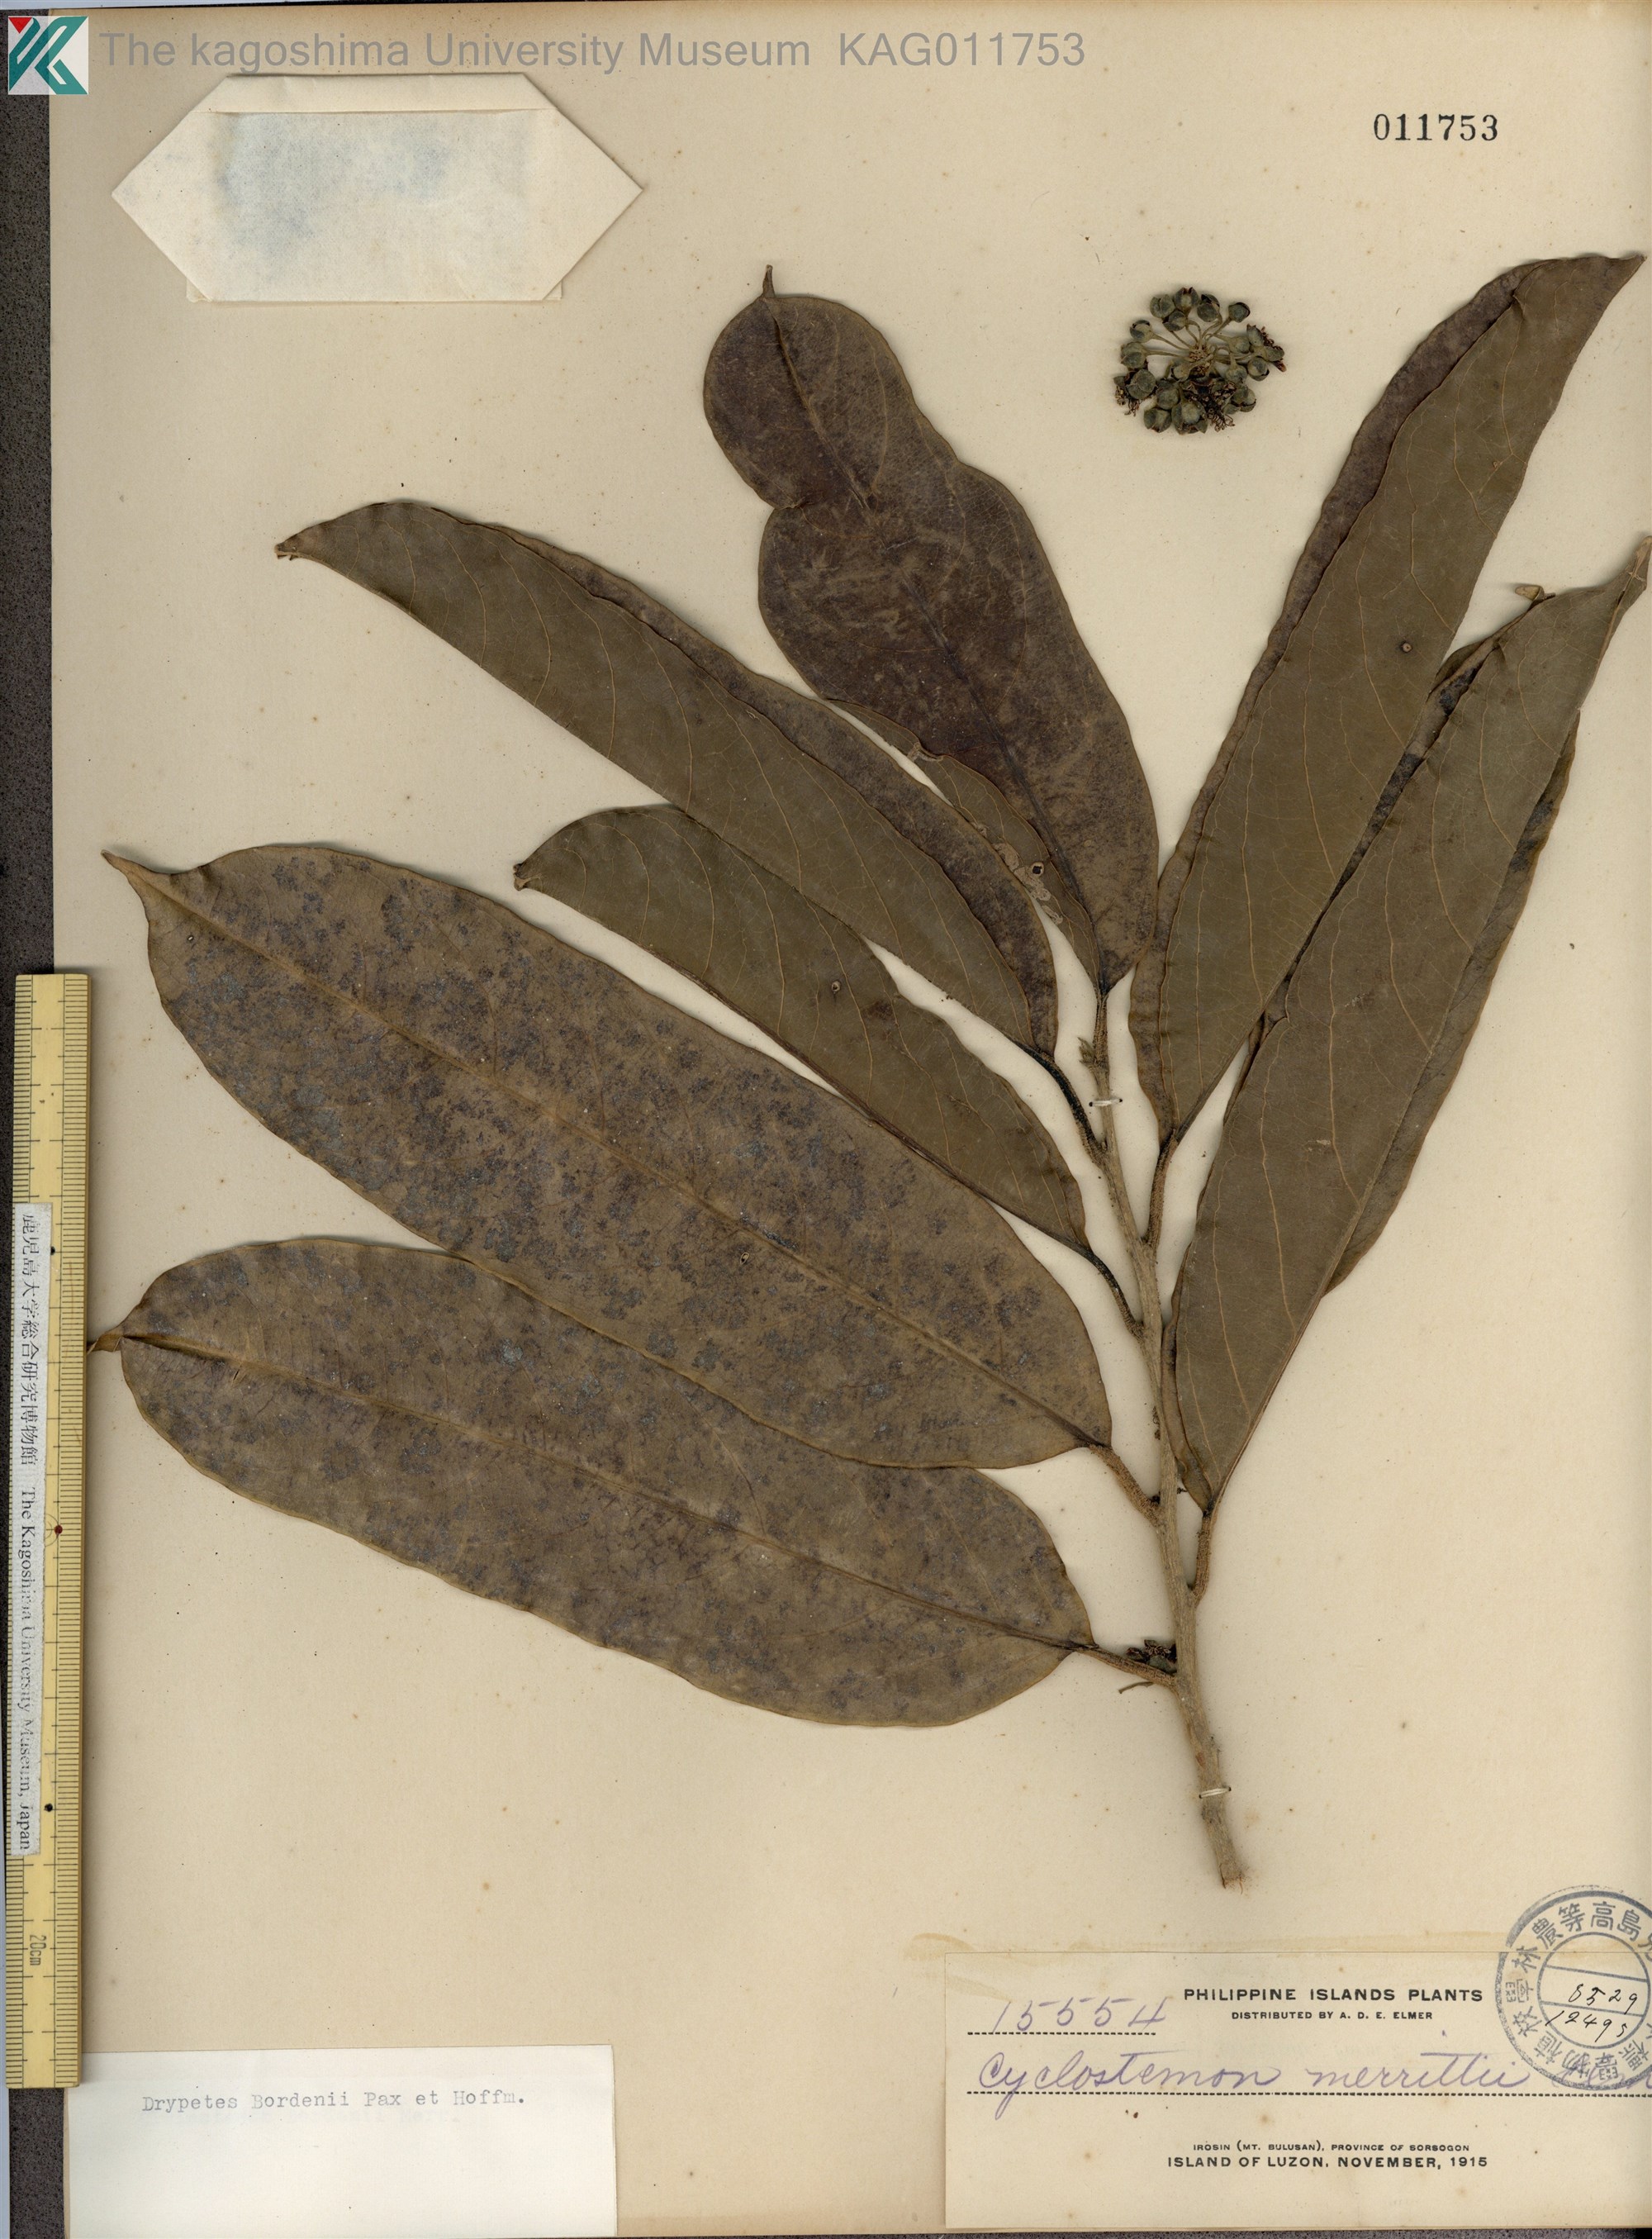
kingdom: Plantae
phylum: Tracheophyta
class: Magnoliopsida
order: Malpighiales
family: Putranjivaceae
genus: Drypetes
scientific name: Drypetes longifolia
